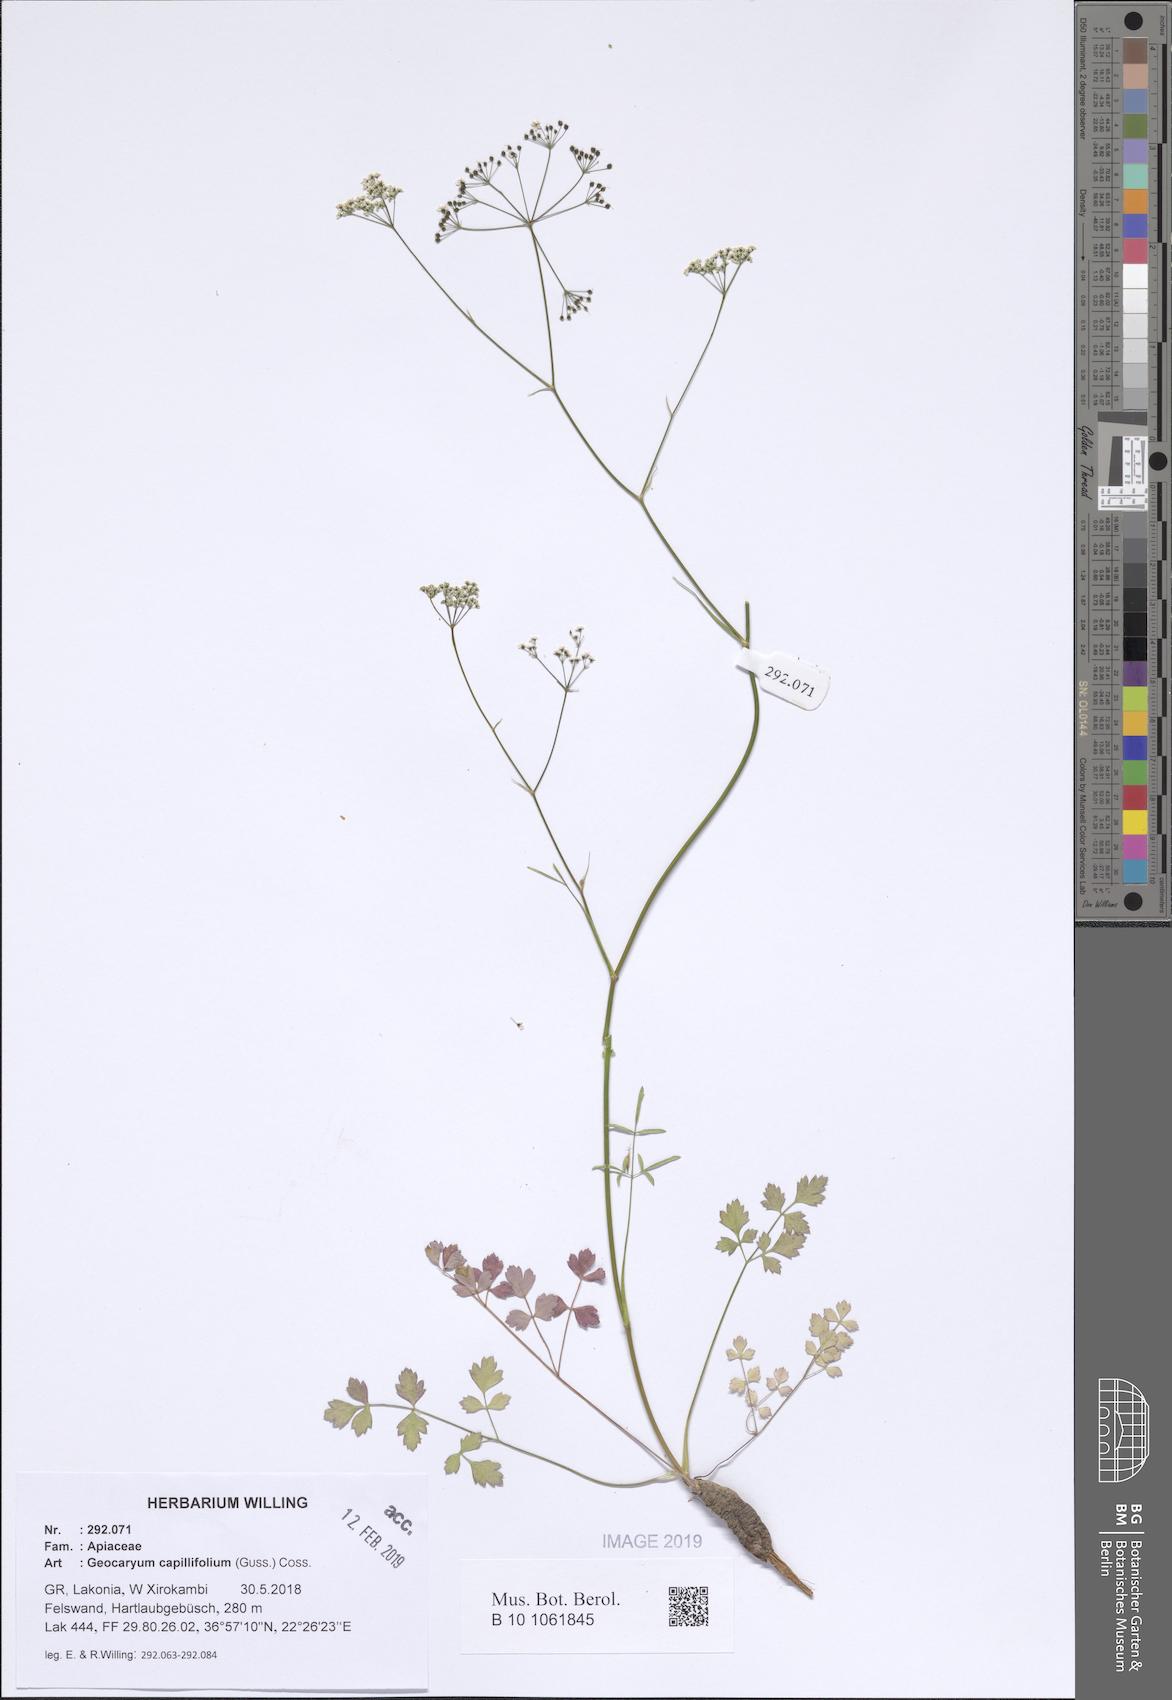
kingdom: Plantae
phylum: Tracheophyta
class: Magnoliopsida
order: Apiales
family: Apiaceae
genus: Geocaryum
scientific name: Geocaryum capillifolium
